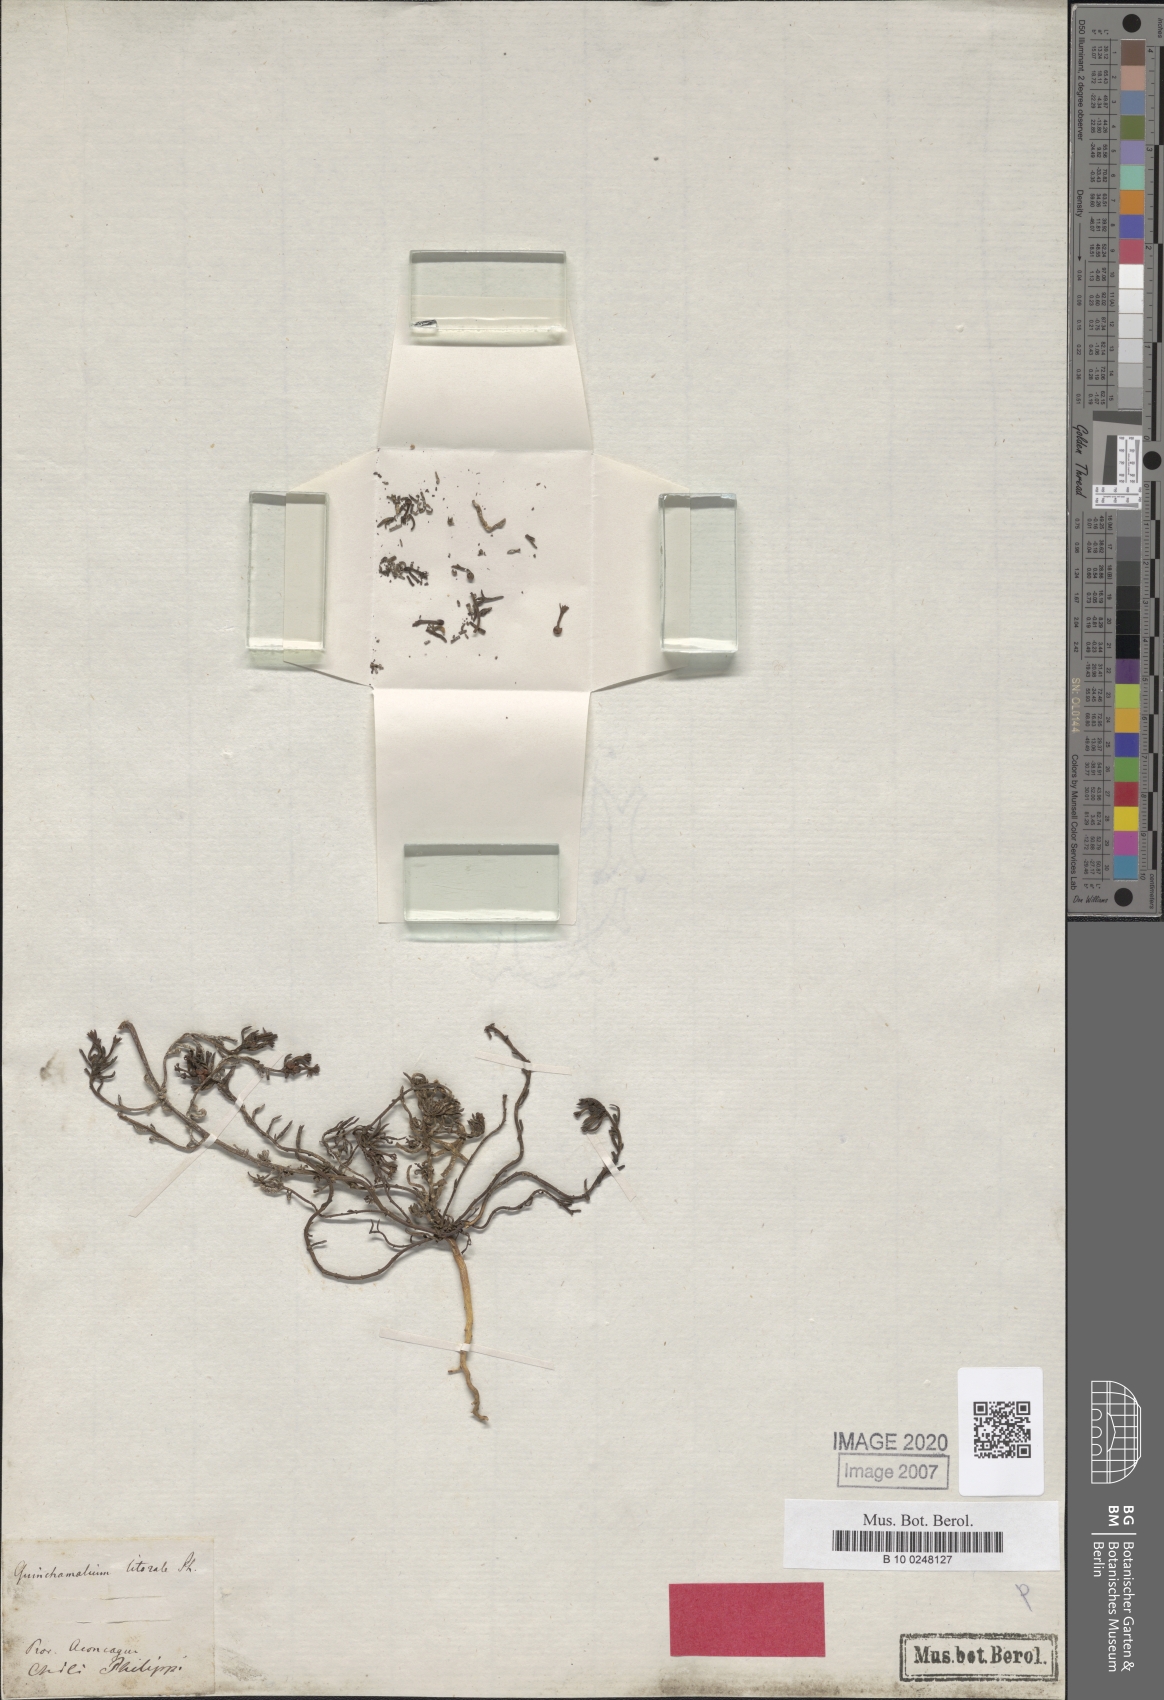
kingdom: Plantae
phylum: Tracheophyta
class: Magnoliopsida
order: Santalales
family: Schoepfiaceae
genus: Quinchamalium
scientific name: Quinchamalium chilense
